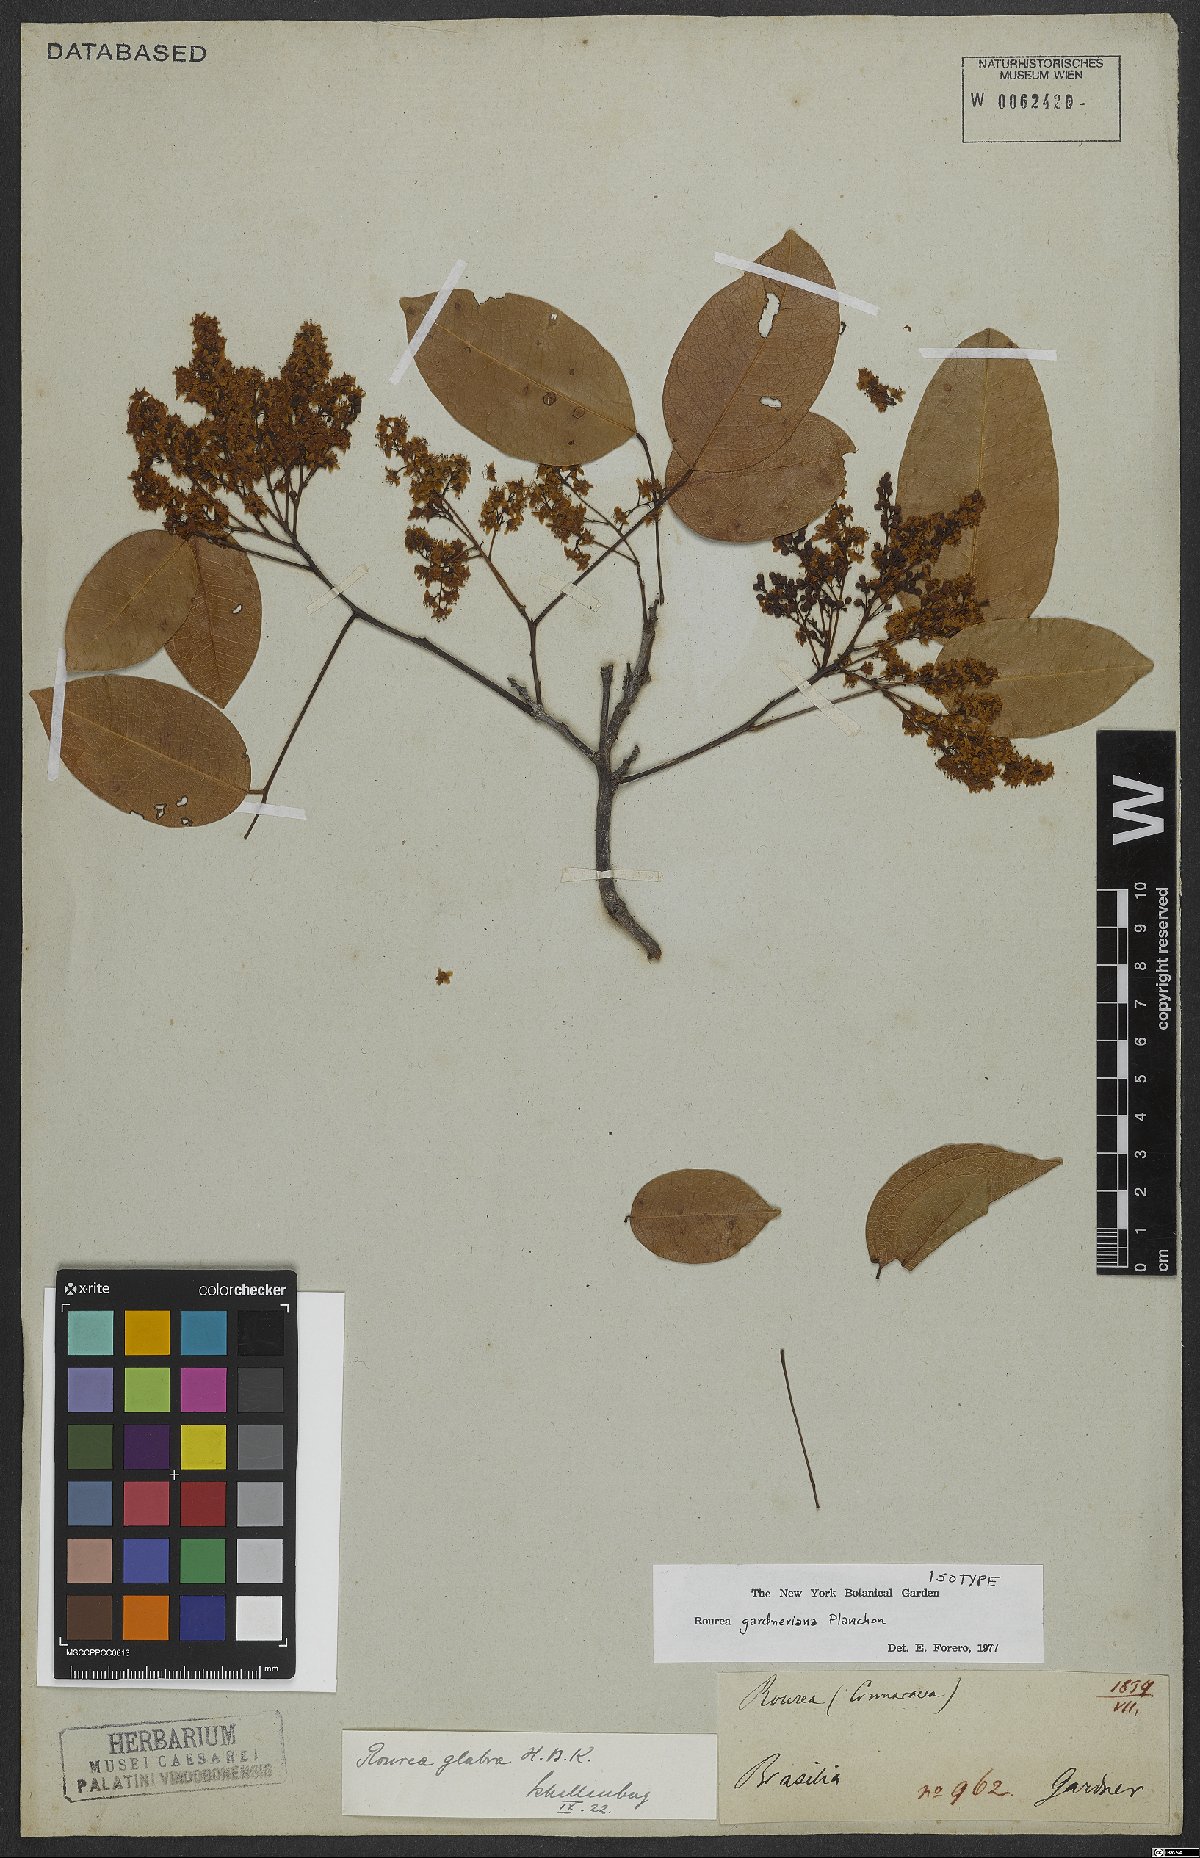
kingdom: Plantae
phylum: Tracheophyta
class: Magnoliopsida
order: Oxalidales
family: Connaraceae
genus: Rourea
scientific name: Rourea gardneriana
